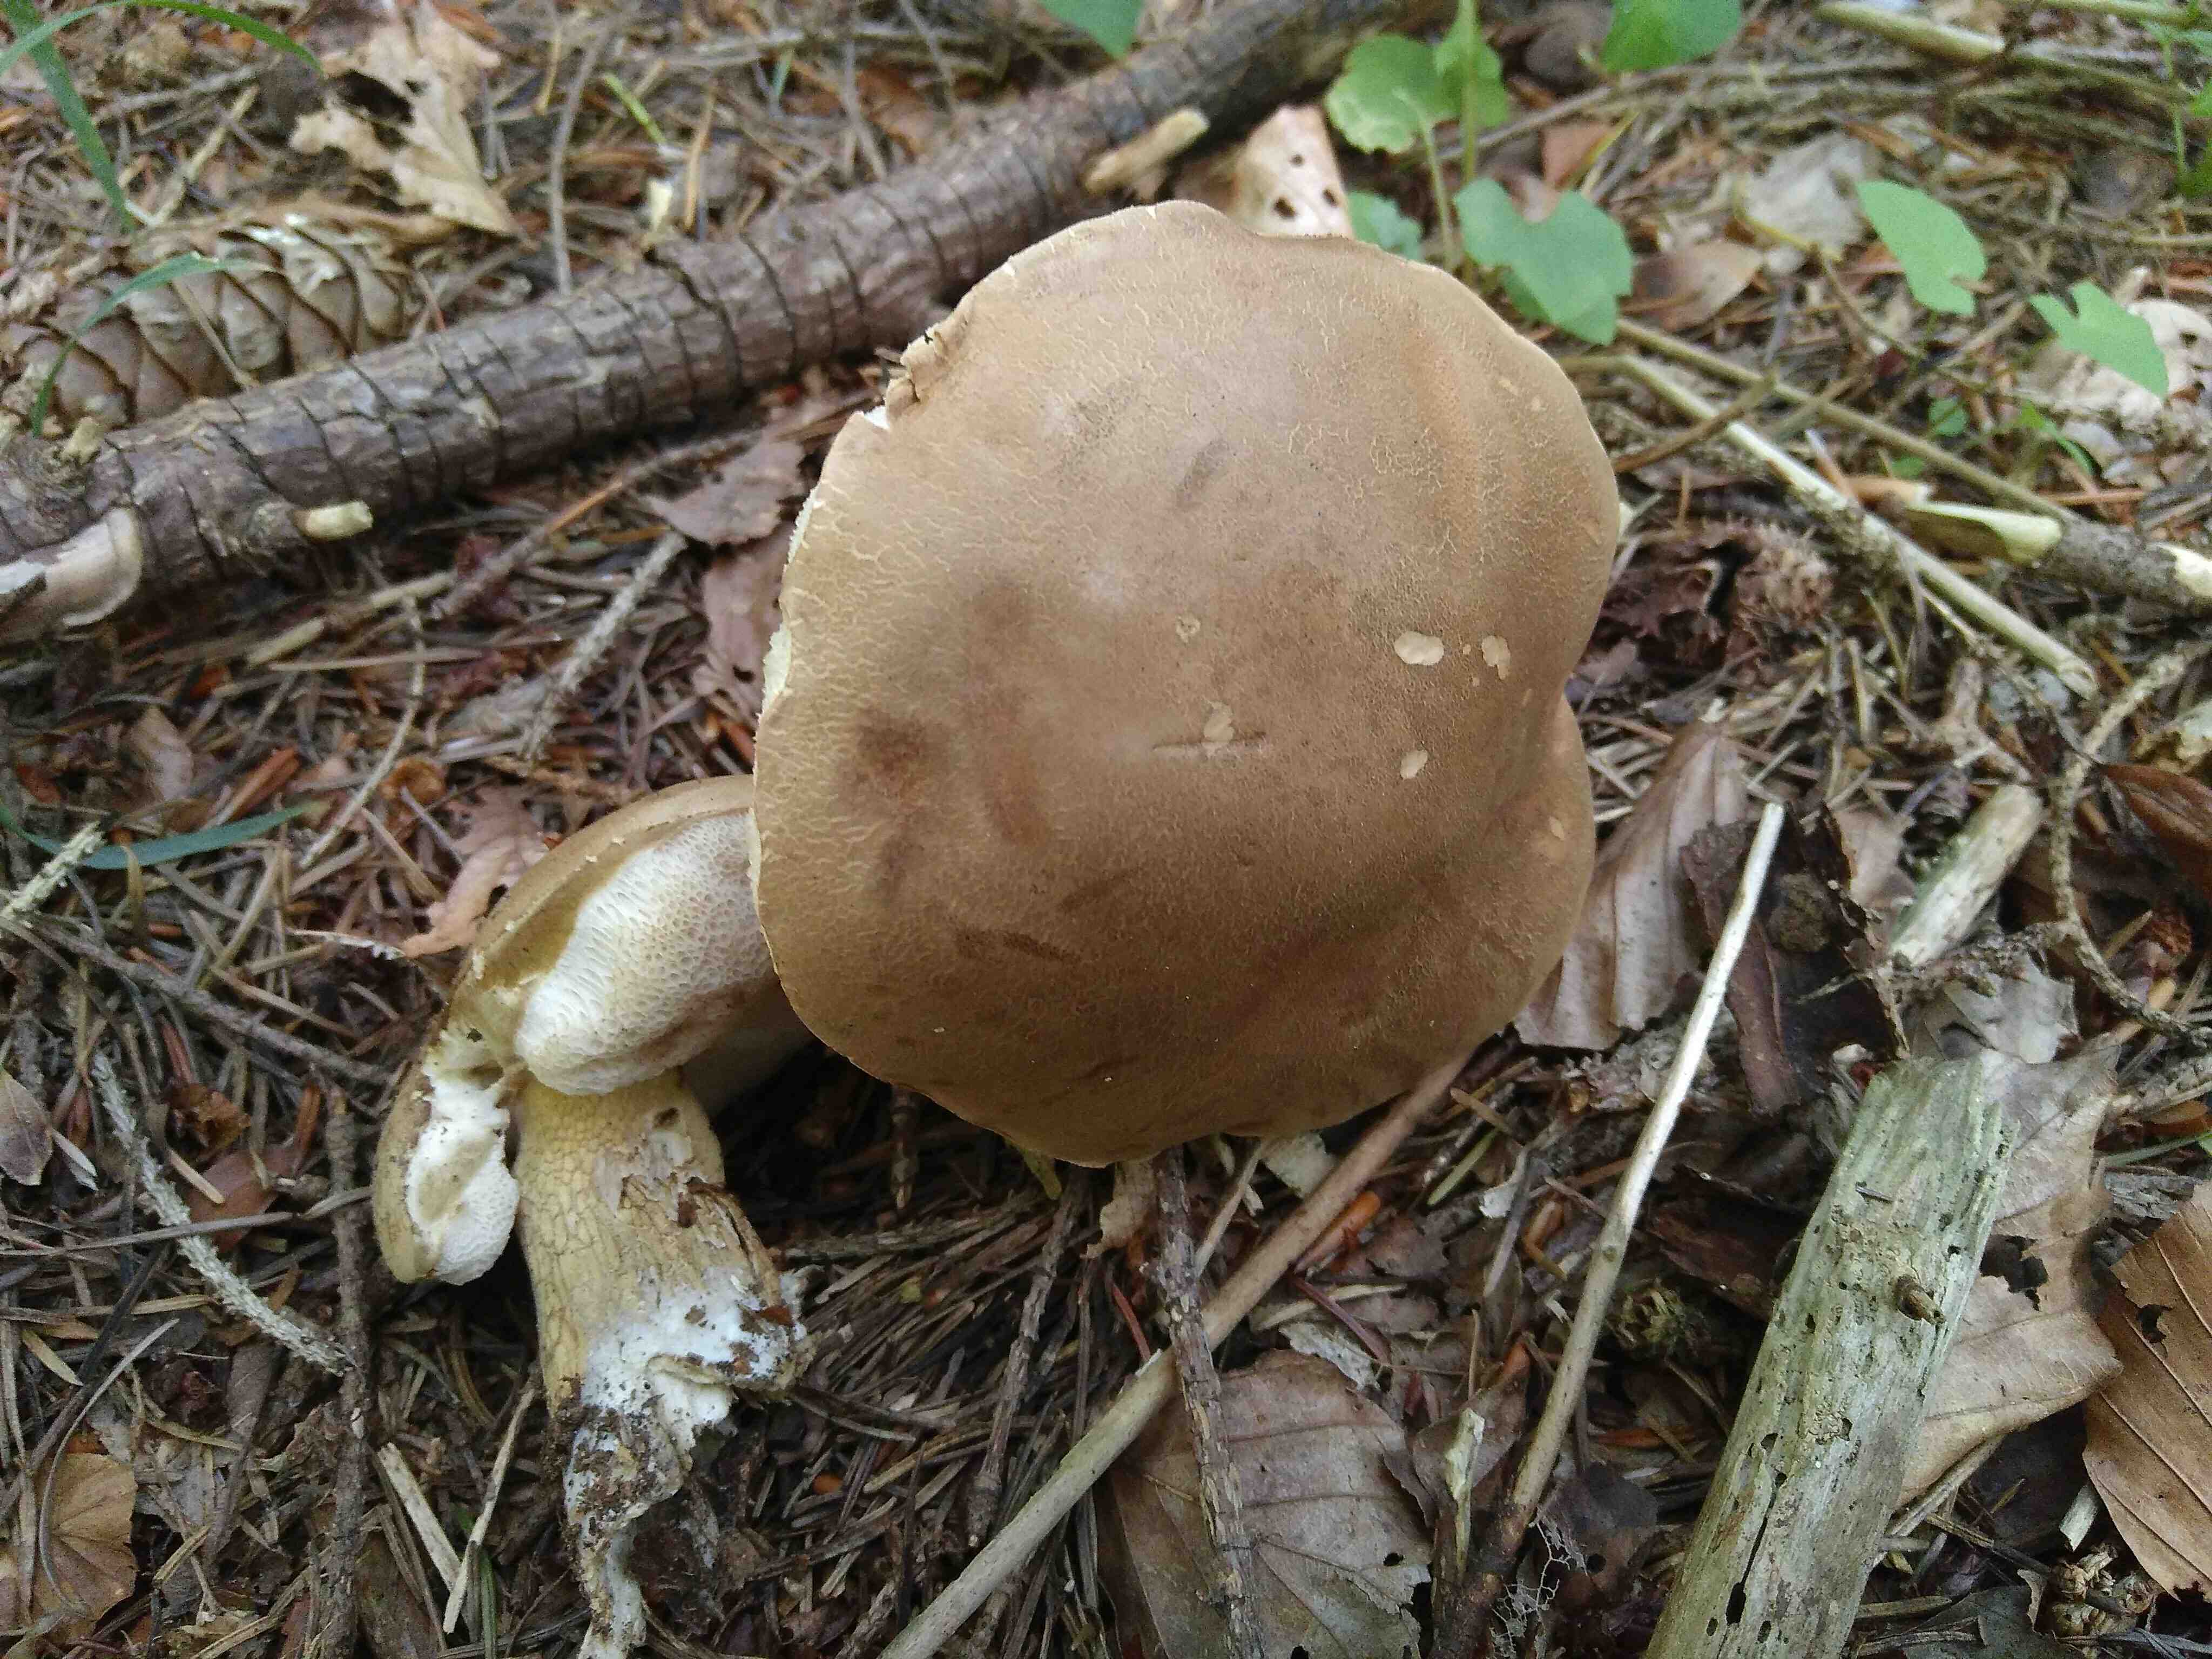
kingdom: Fungi
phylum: Basidiomycota
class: Agaricomycetes
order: Boletales
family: Boletaceae
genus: Tylopilus
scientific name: Tylopilus felleus
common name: galderørhat
